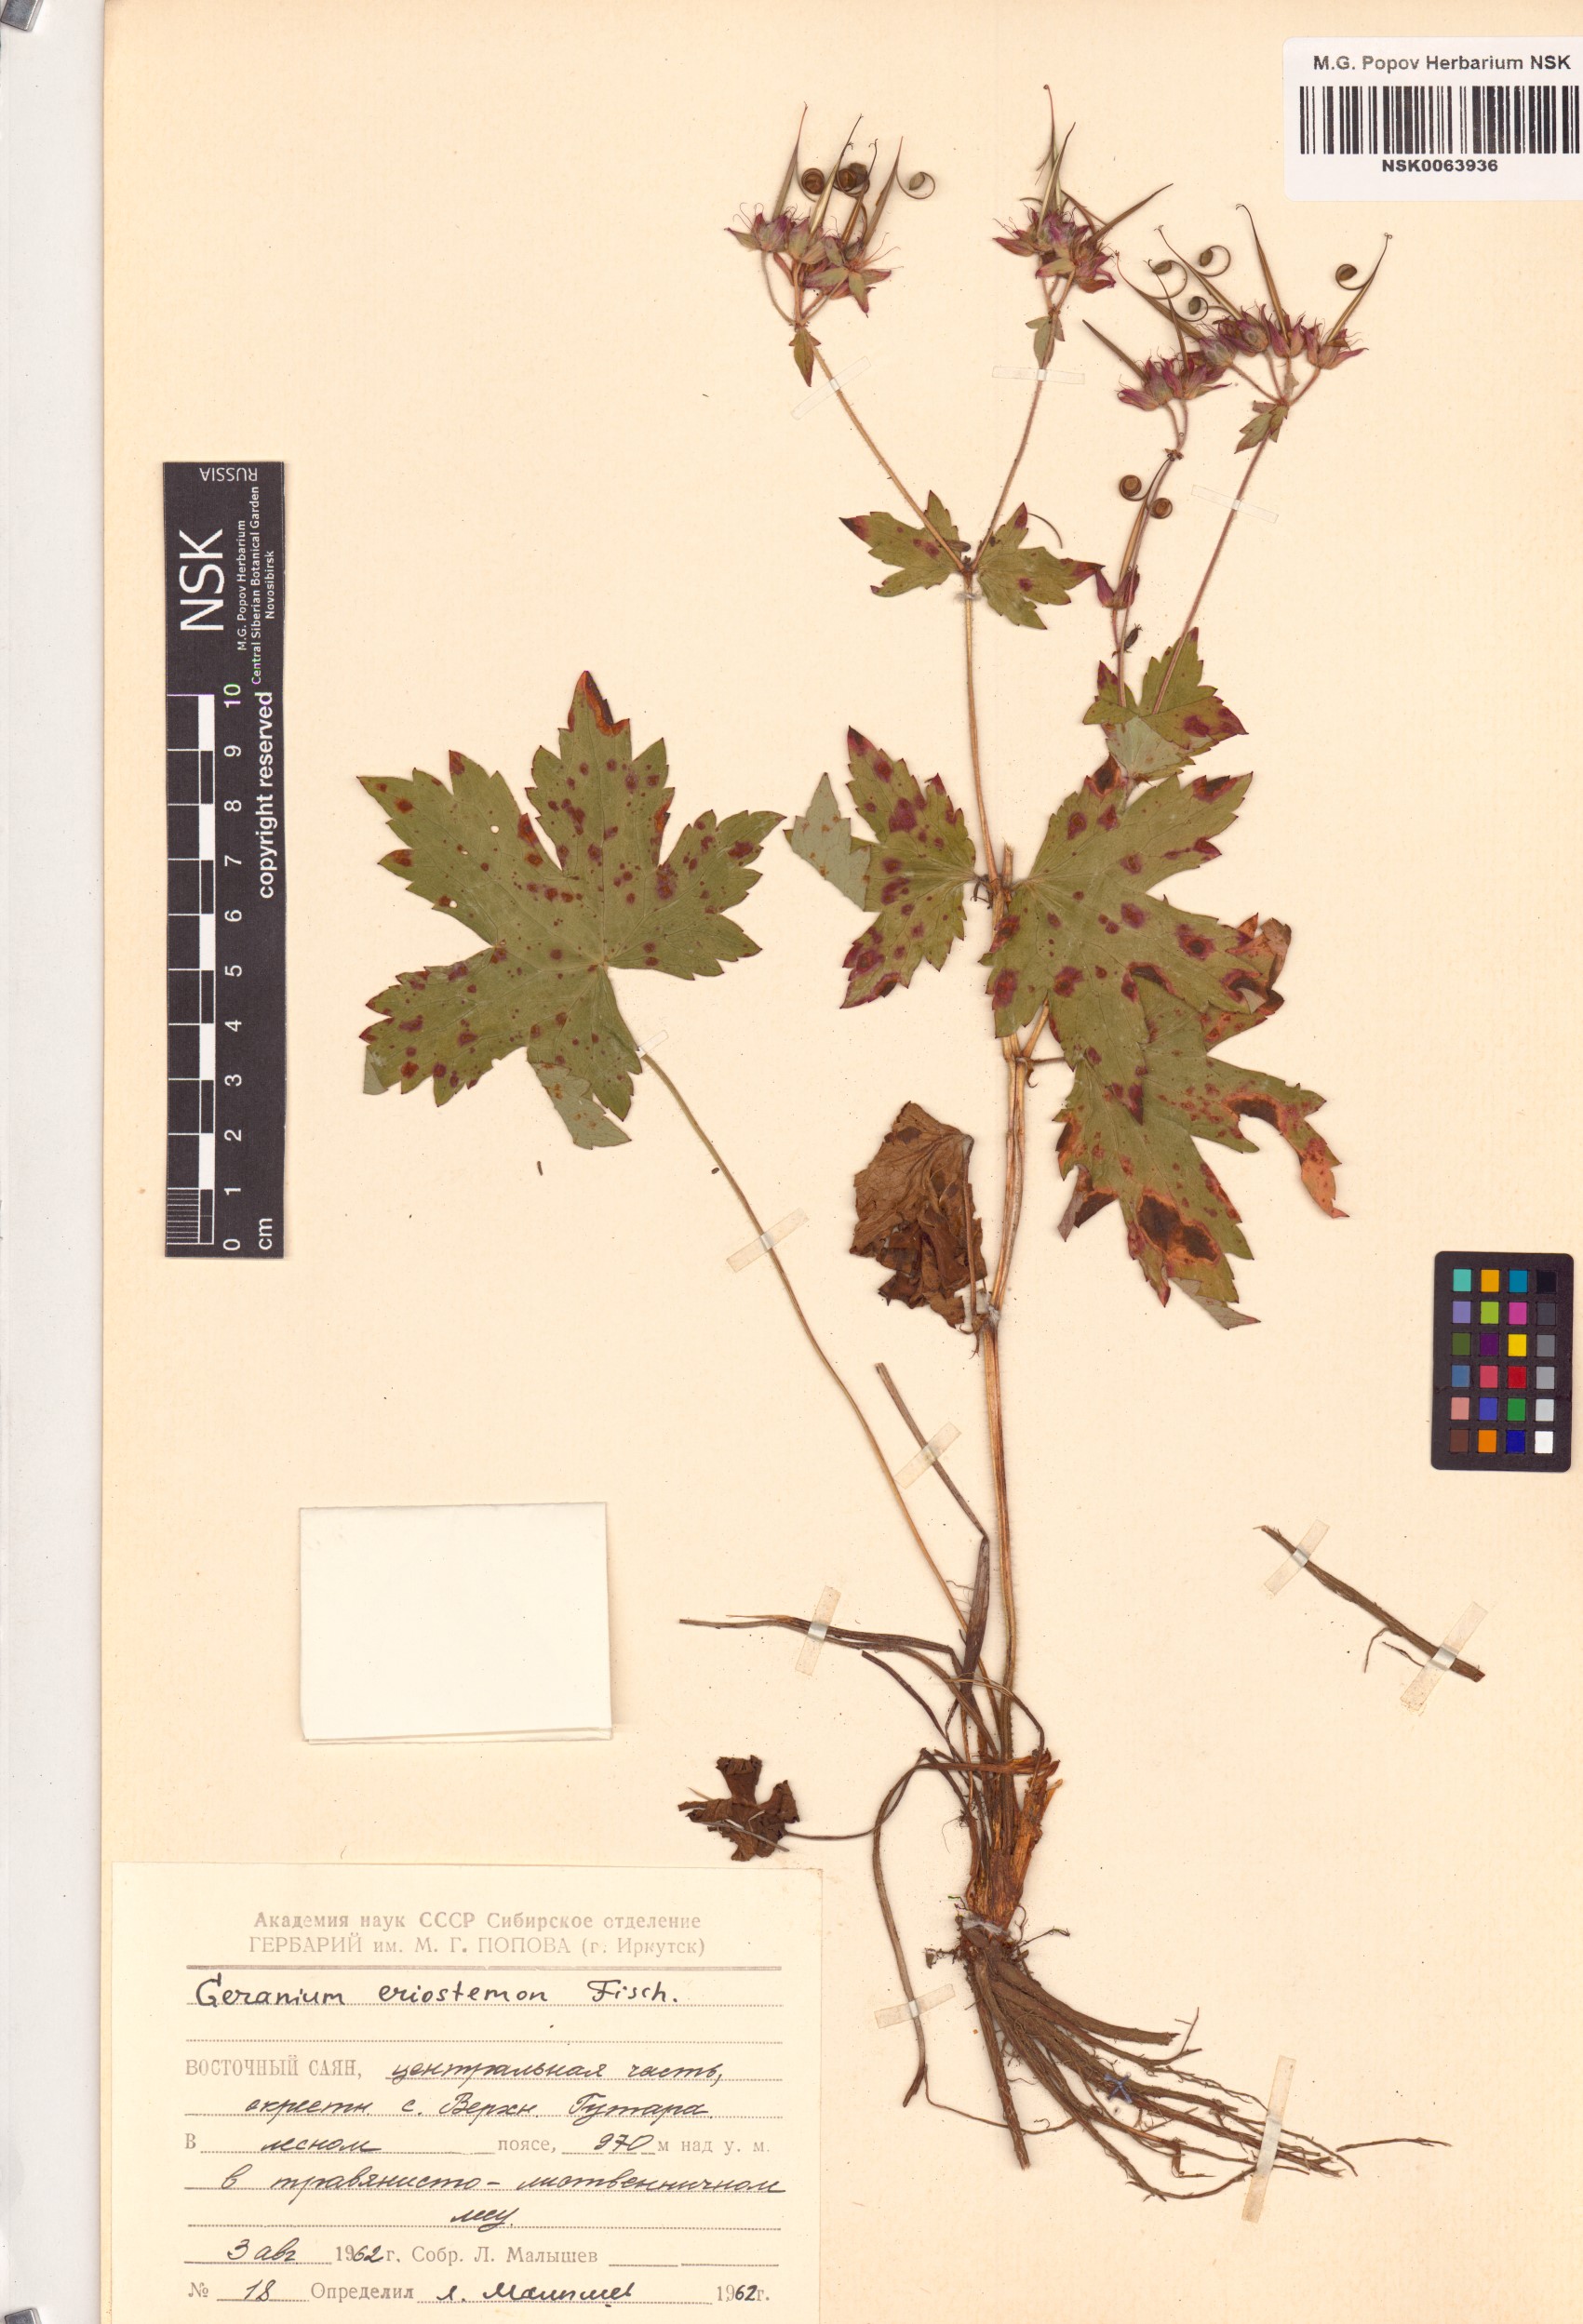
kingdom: Plantae
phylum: Tracheophyta
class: Magnoliopsida
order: Geraniales
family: Geraniaceae
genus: Geranium
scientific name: Geranium platyanthum
